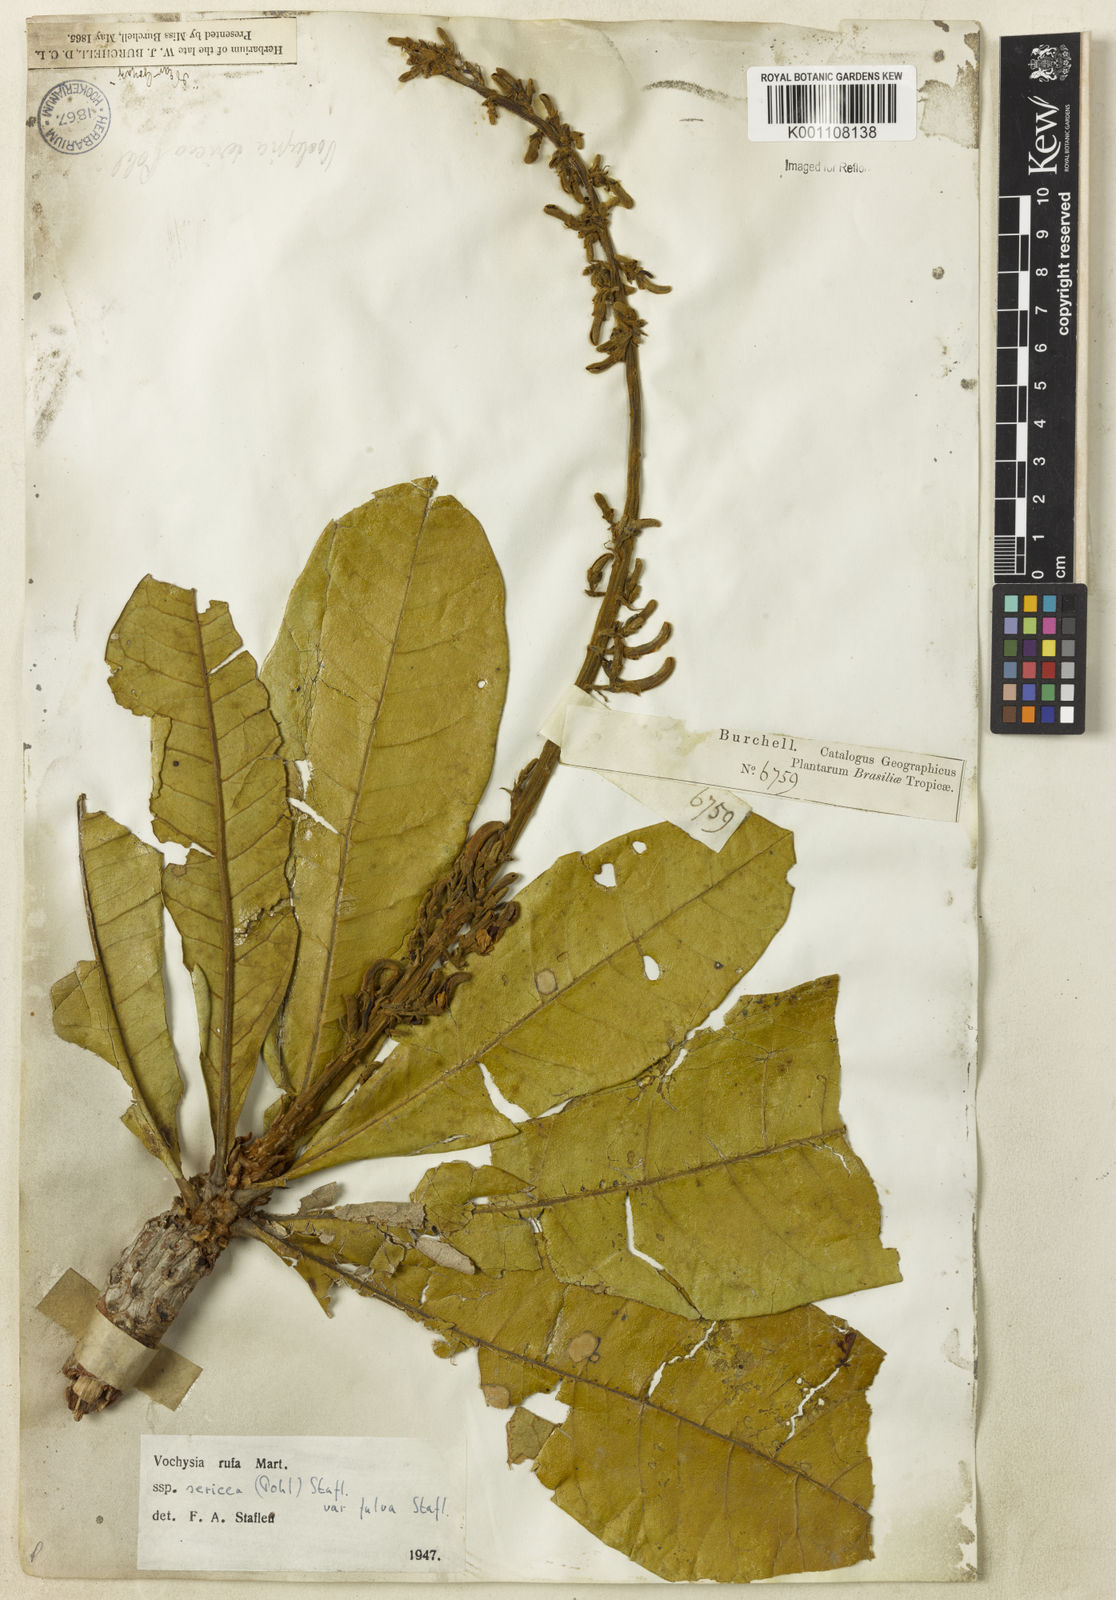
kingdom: Plantae
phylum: Tracheophyta
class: Magnoliopsida
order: Myrtales
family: Vochysiaceae
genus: Vochysia
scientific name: Vochysia rufa
